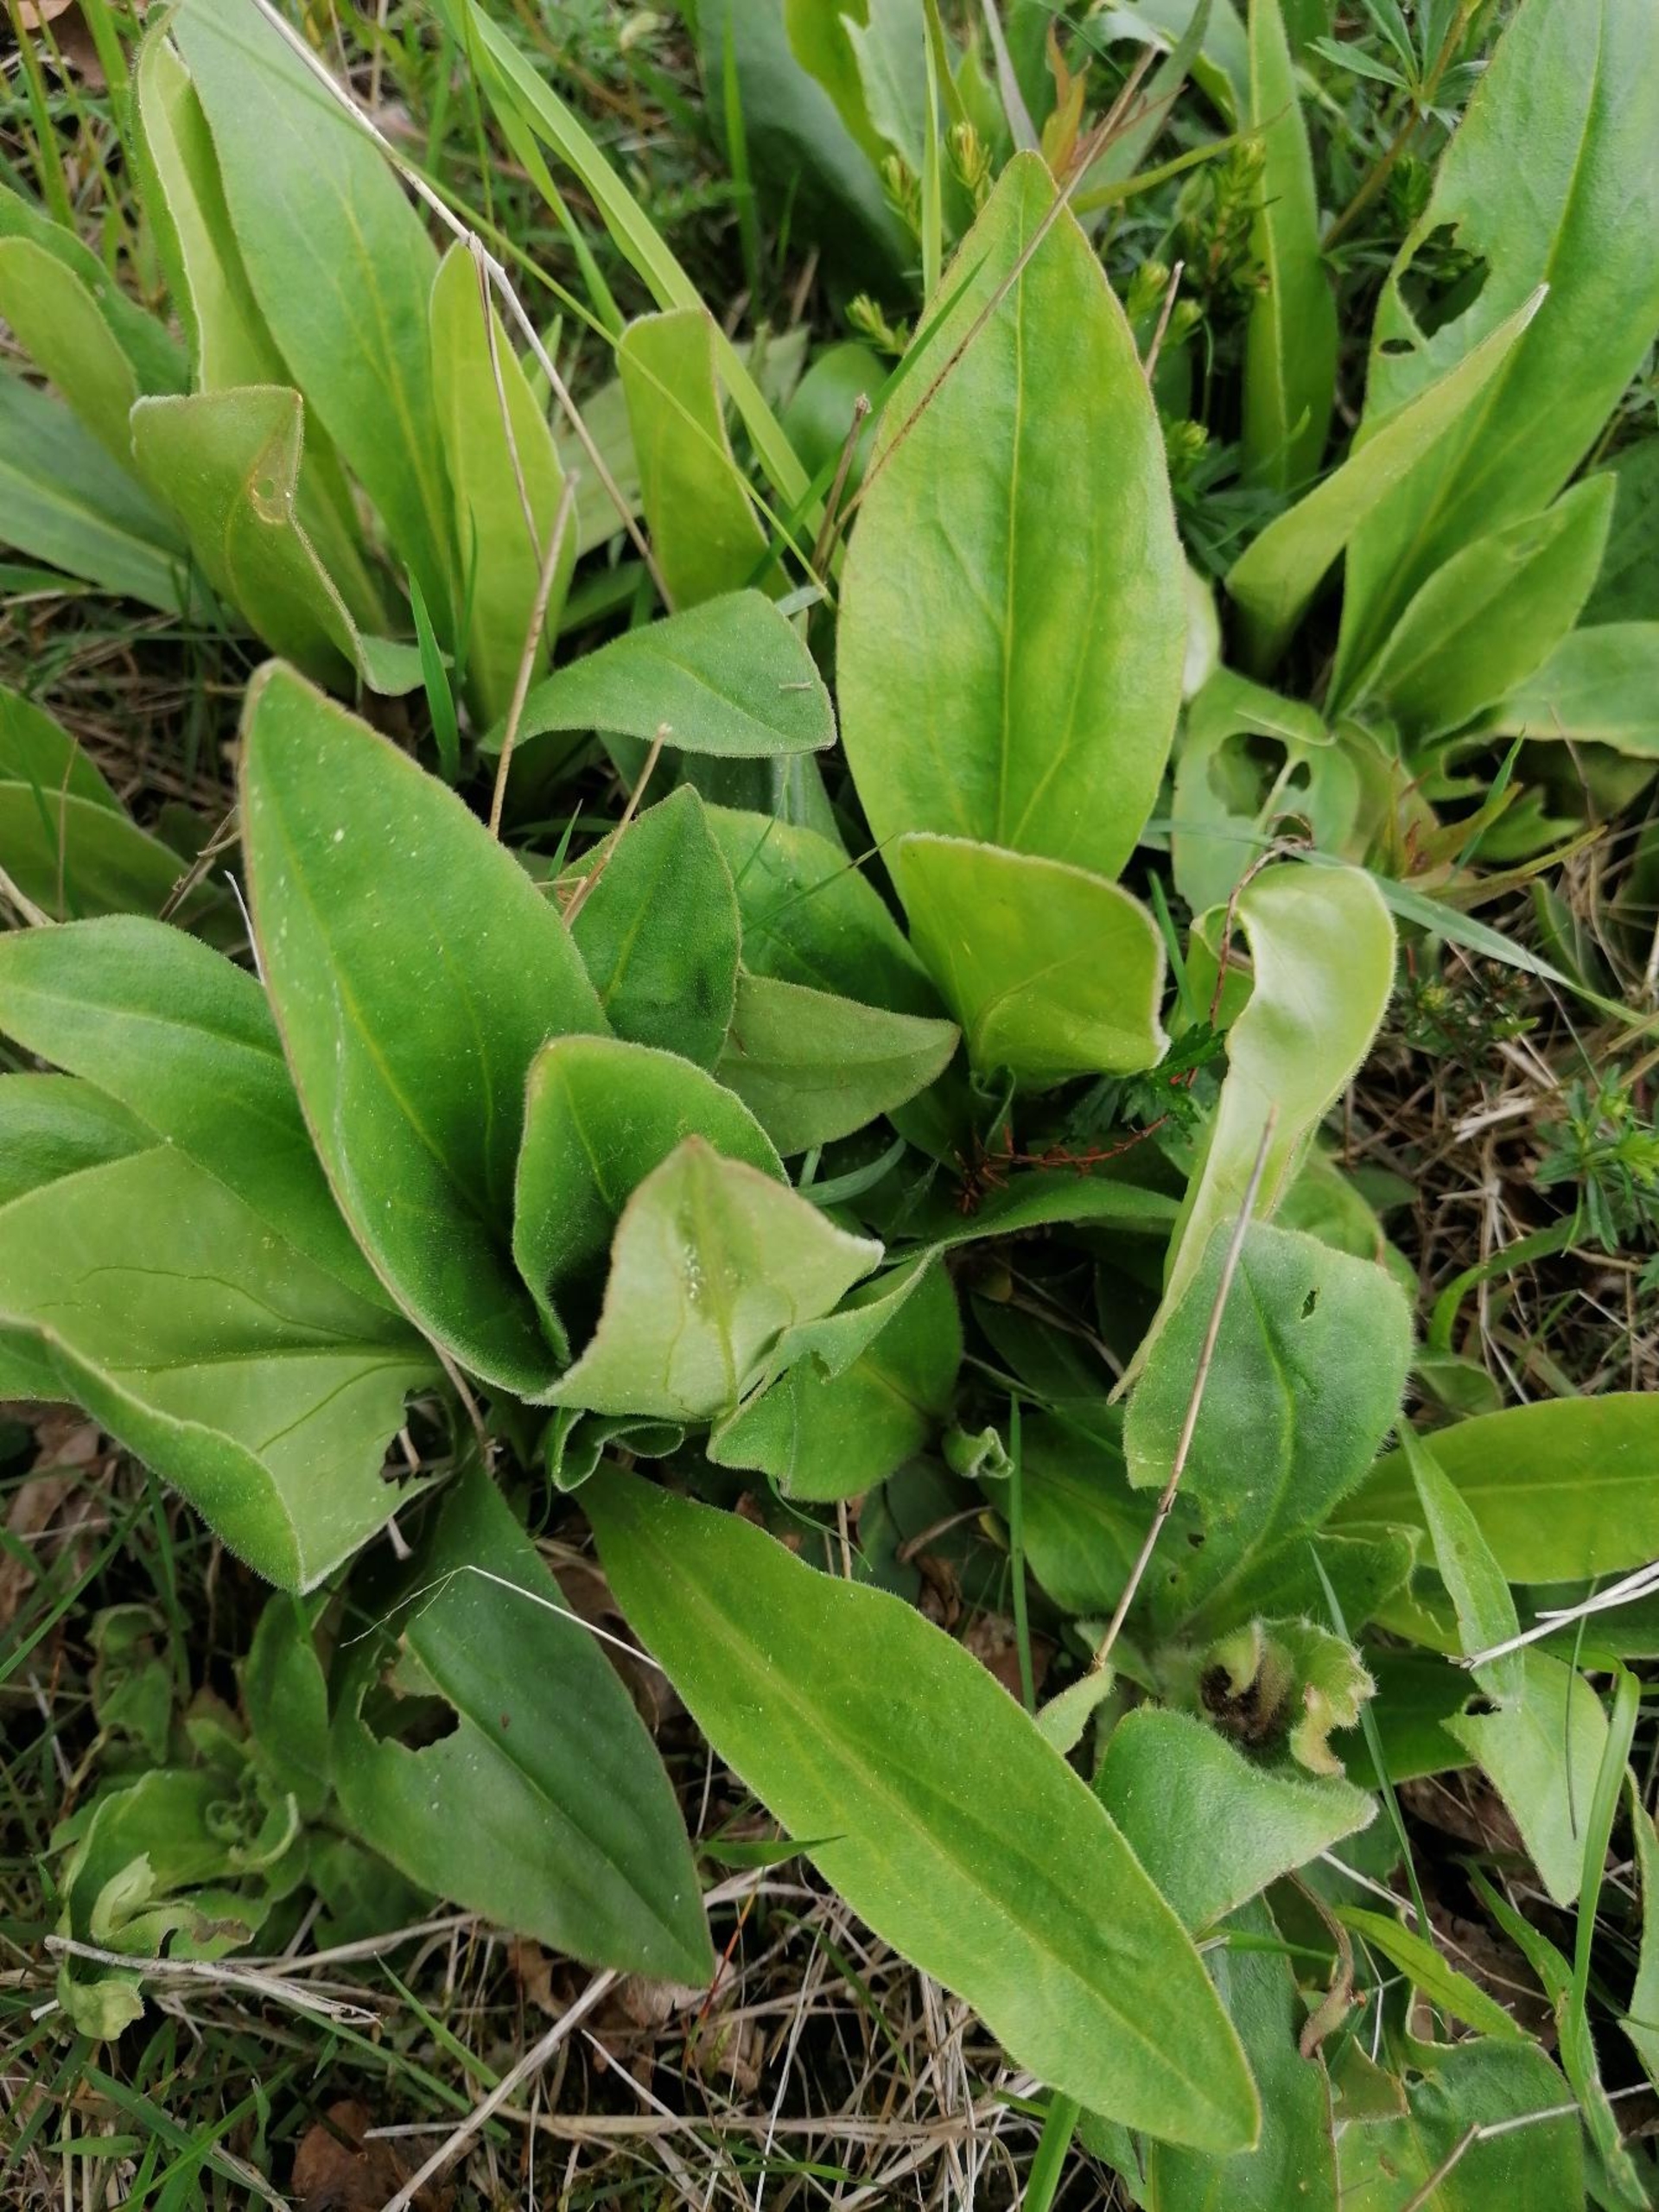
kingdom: Plantae
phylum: Tracheophyta
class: Magnoliopsida
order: Asterales
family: Asteraceae
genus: Arnica
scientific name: Arnica montana
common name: Guldblomme
